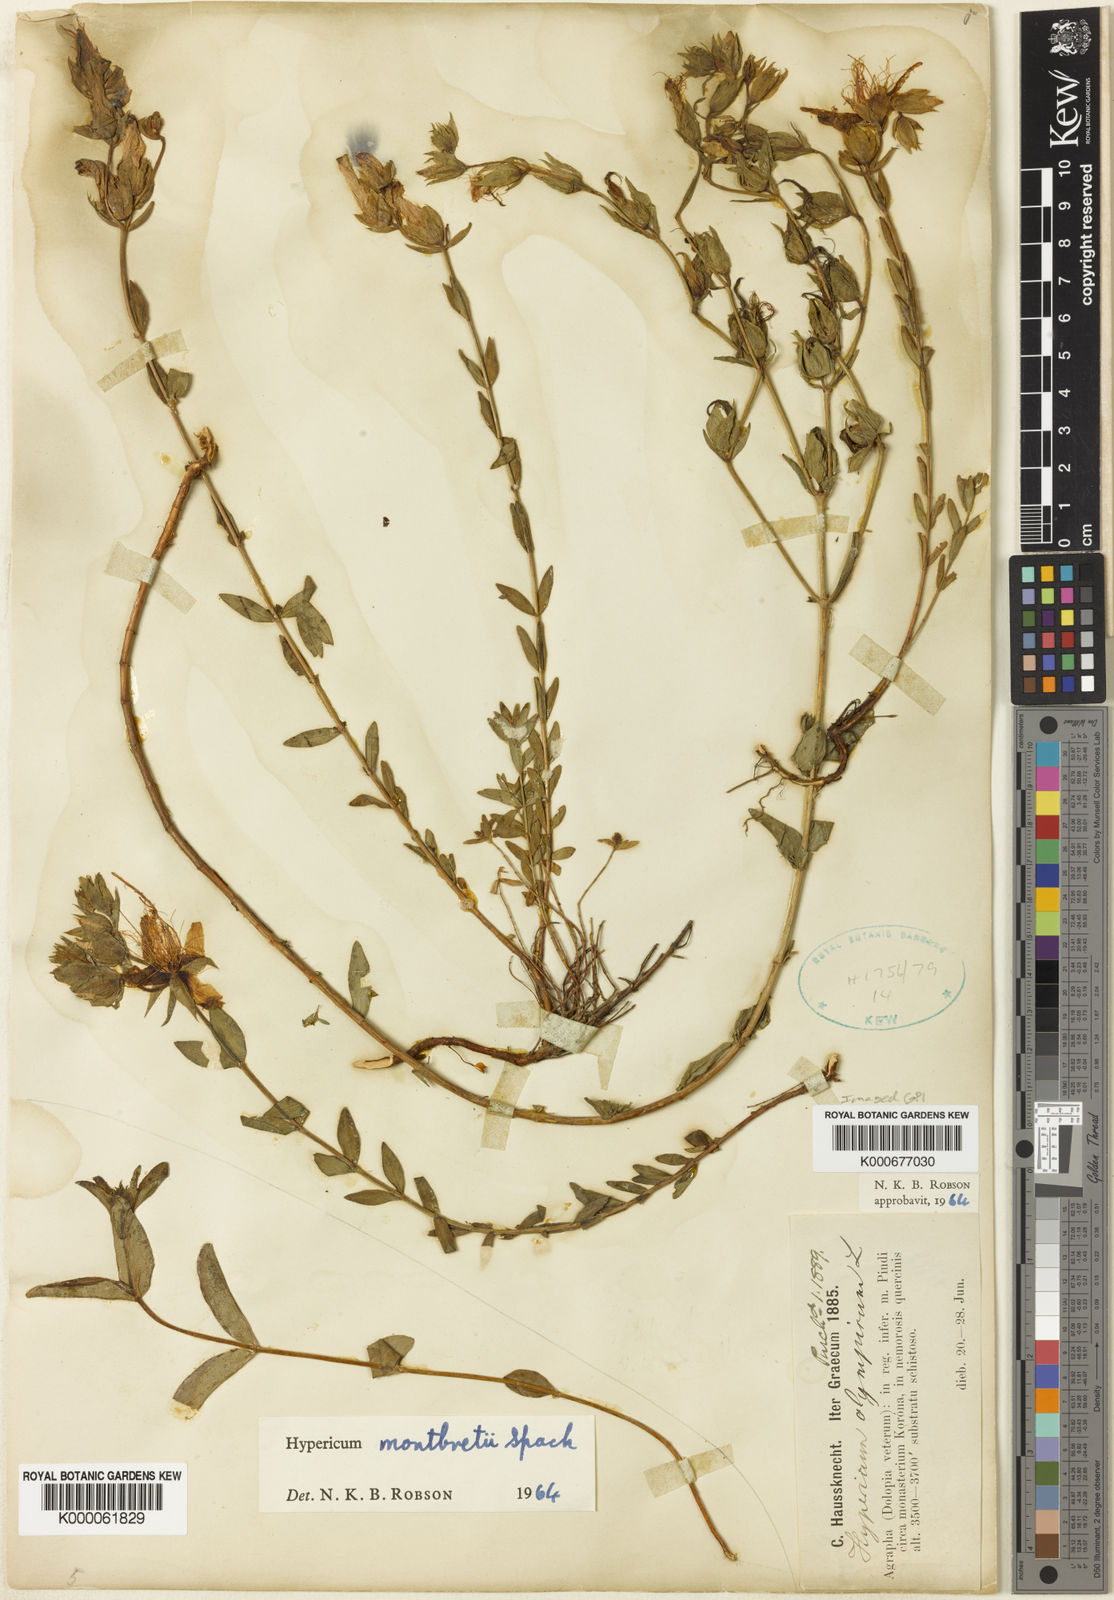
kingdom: Plantae
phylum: Tracheophyta
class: Magnoliopsida
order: Malpighiales
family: Hypericaceae
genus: Hypericum
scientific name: Hypericum olympicum
